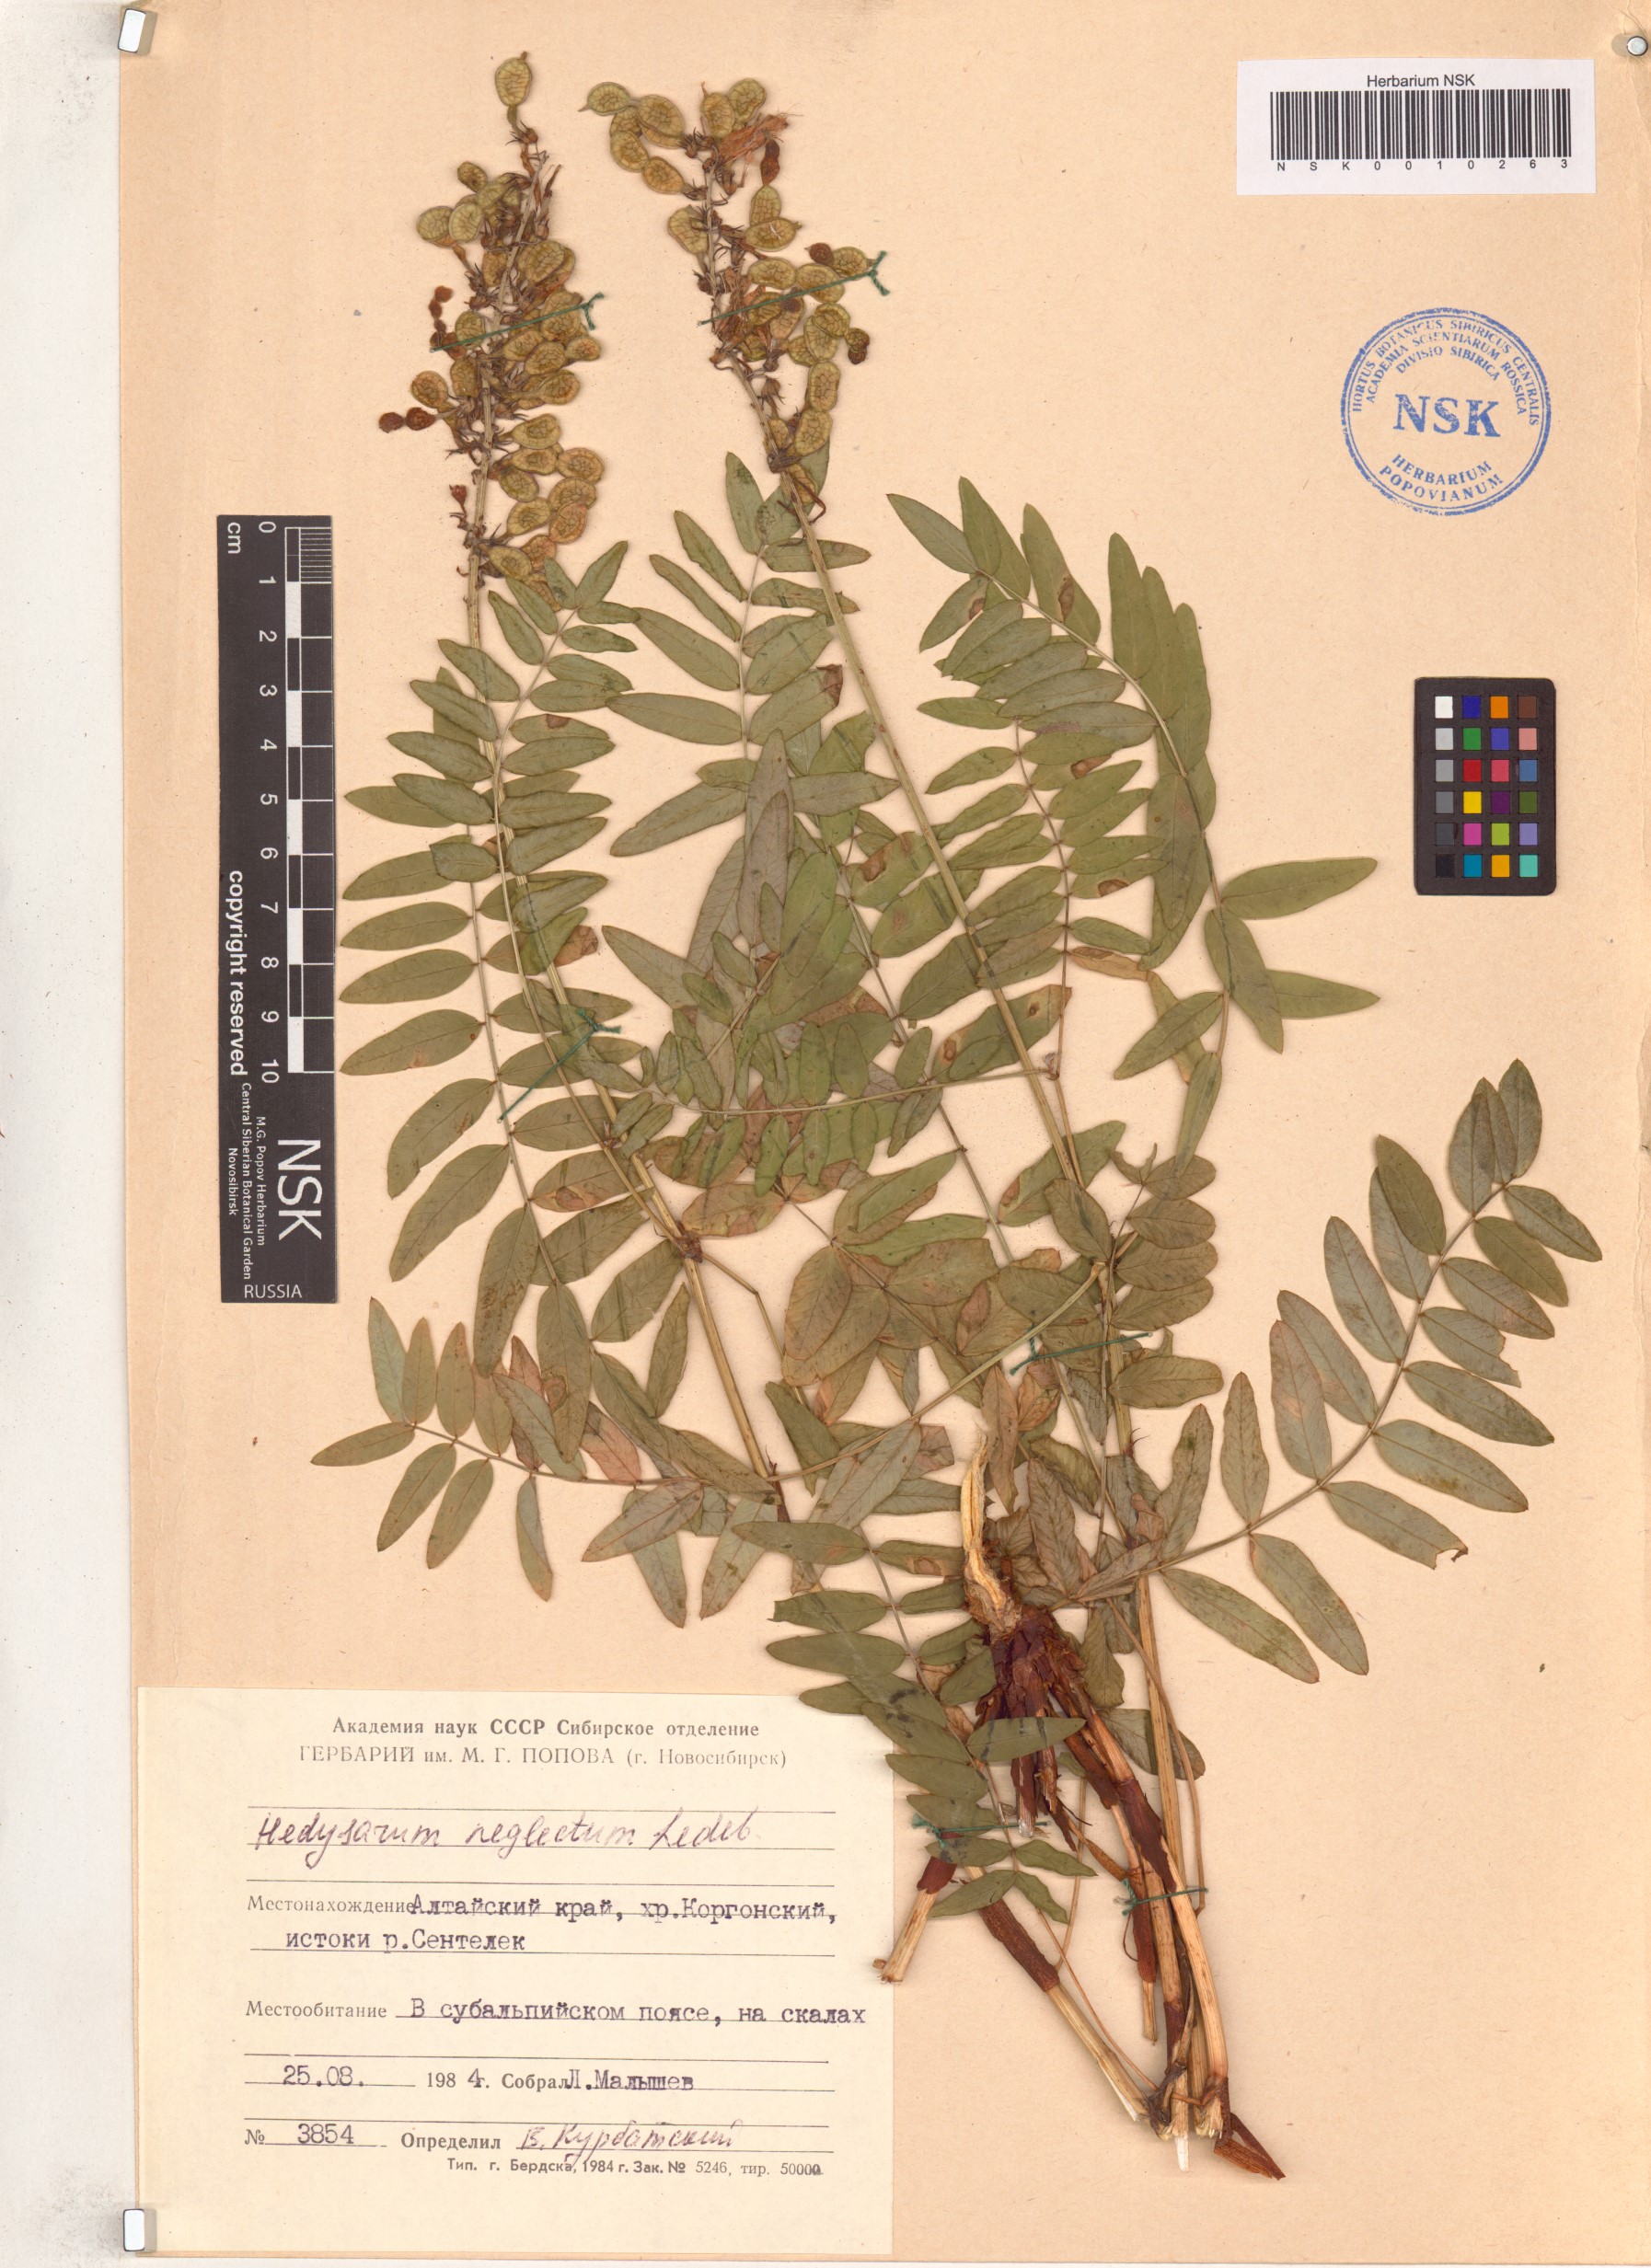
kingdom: Plantae
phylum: Tracheophyta
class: Magnoliopsida
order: Fabales
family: Fabaceae
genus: Hedysarum
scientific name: Hedysarum neglectum
